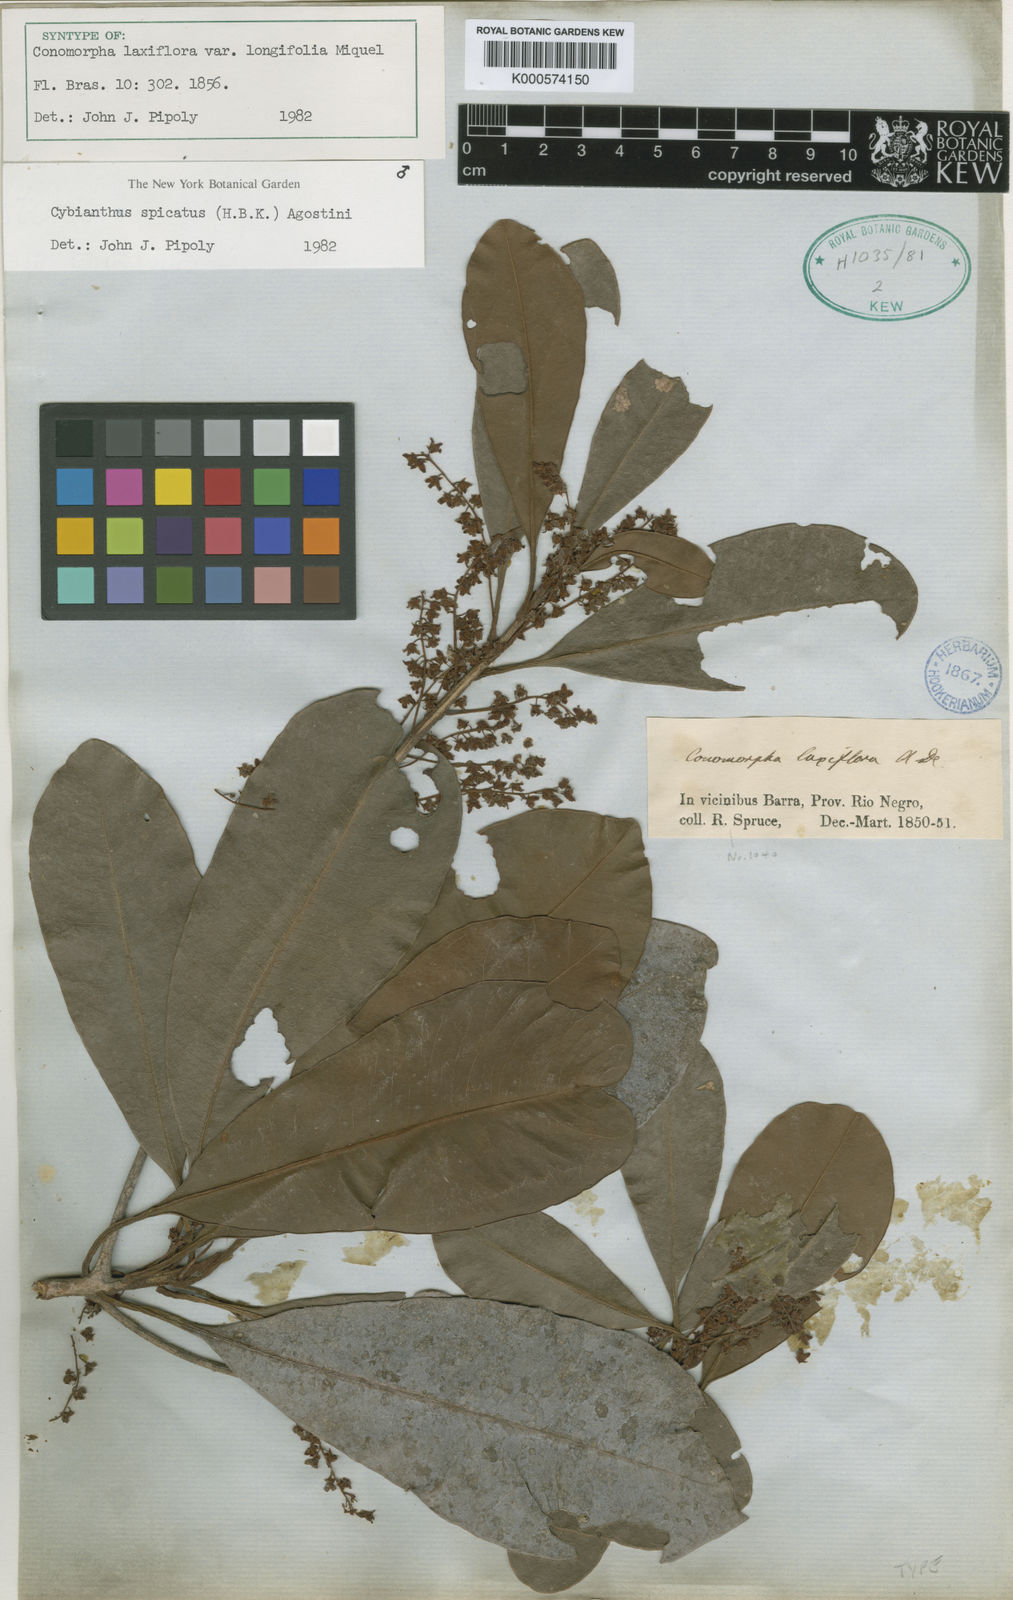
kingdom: Plantae
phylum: Tracheophyta
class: Magnoliopsida
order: Ericales
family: Primulaceae
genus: Cybianthus
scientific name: Cybianthus spicatus
